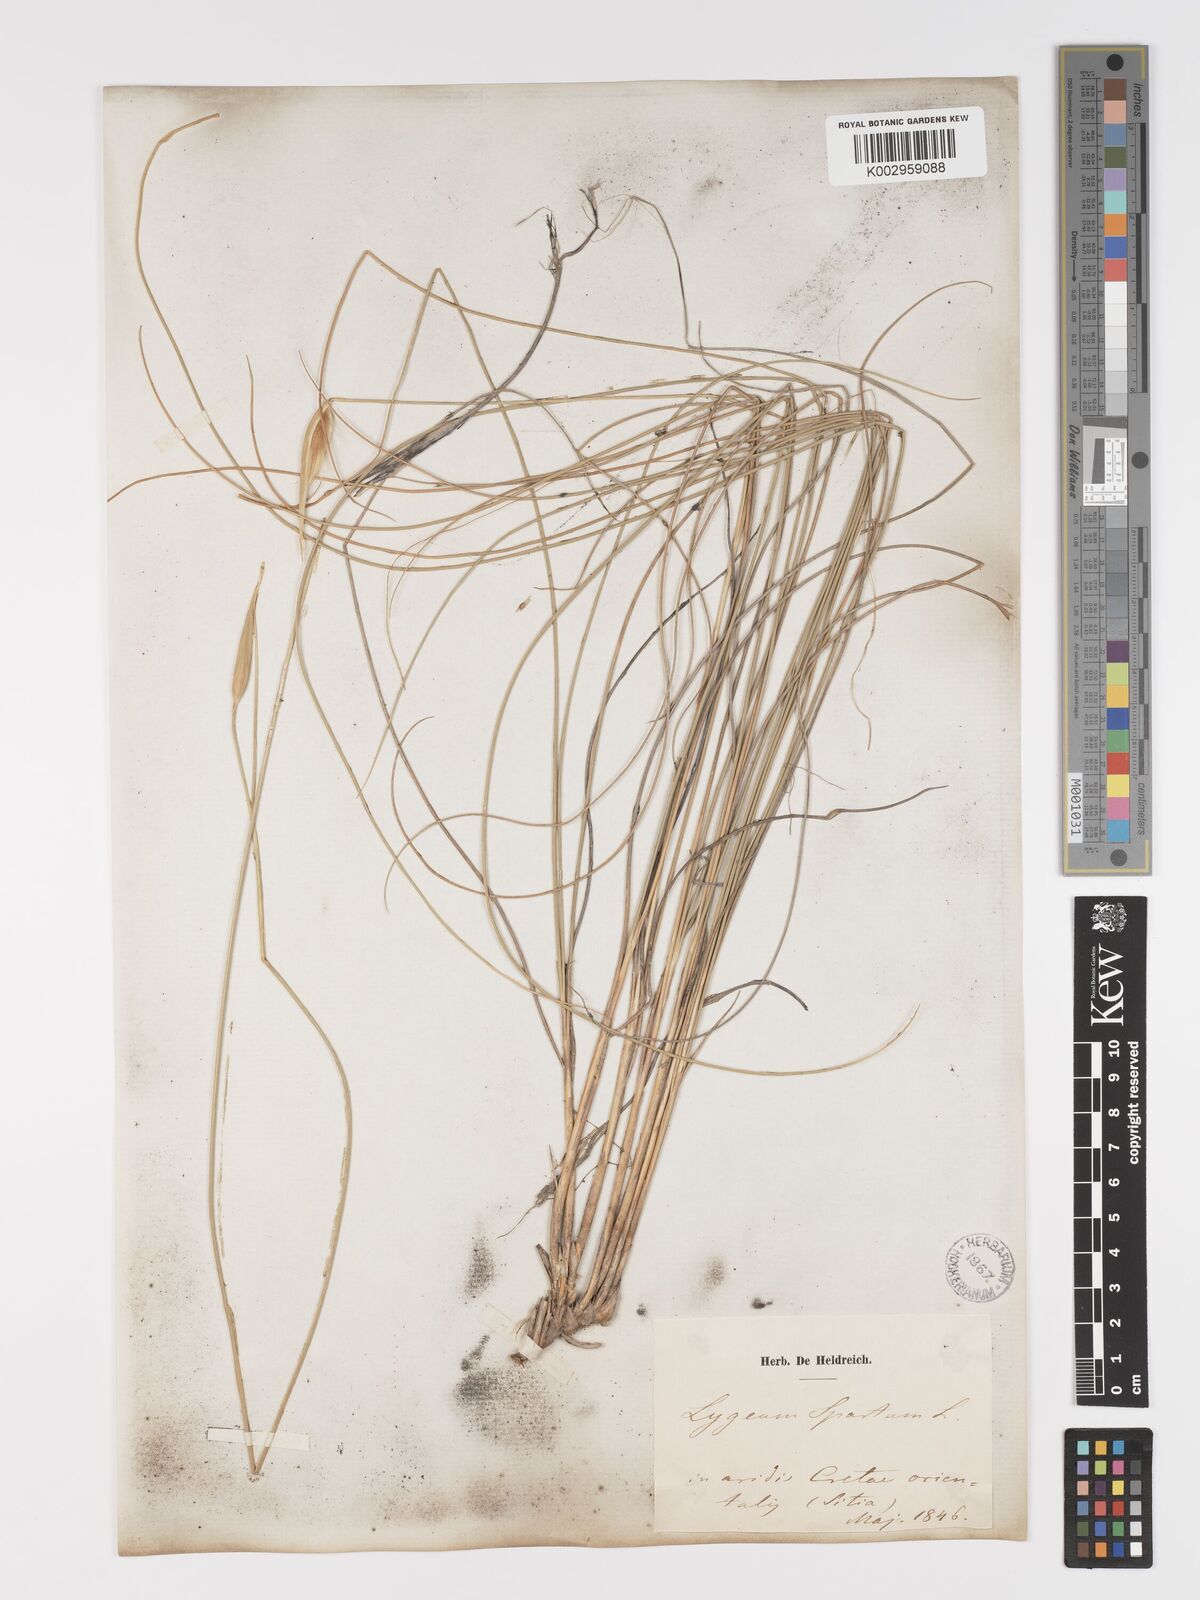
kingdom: Plantae
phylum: Tracheophyta
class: Liliopsida
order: Poales
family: Poaceae
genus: Lygeum
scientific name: Lygeum spartum
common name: Albardine
